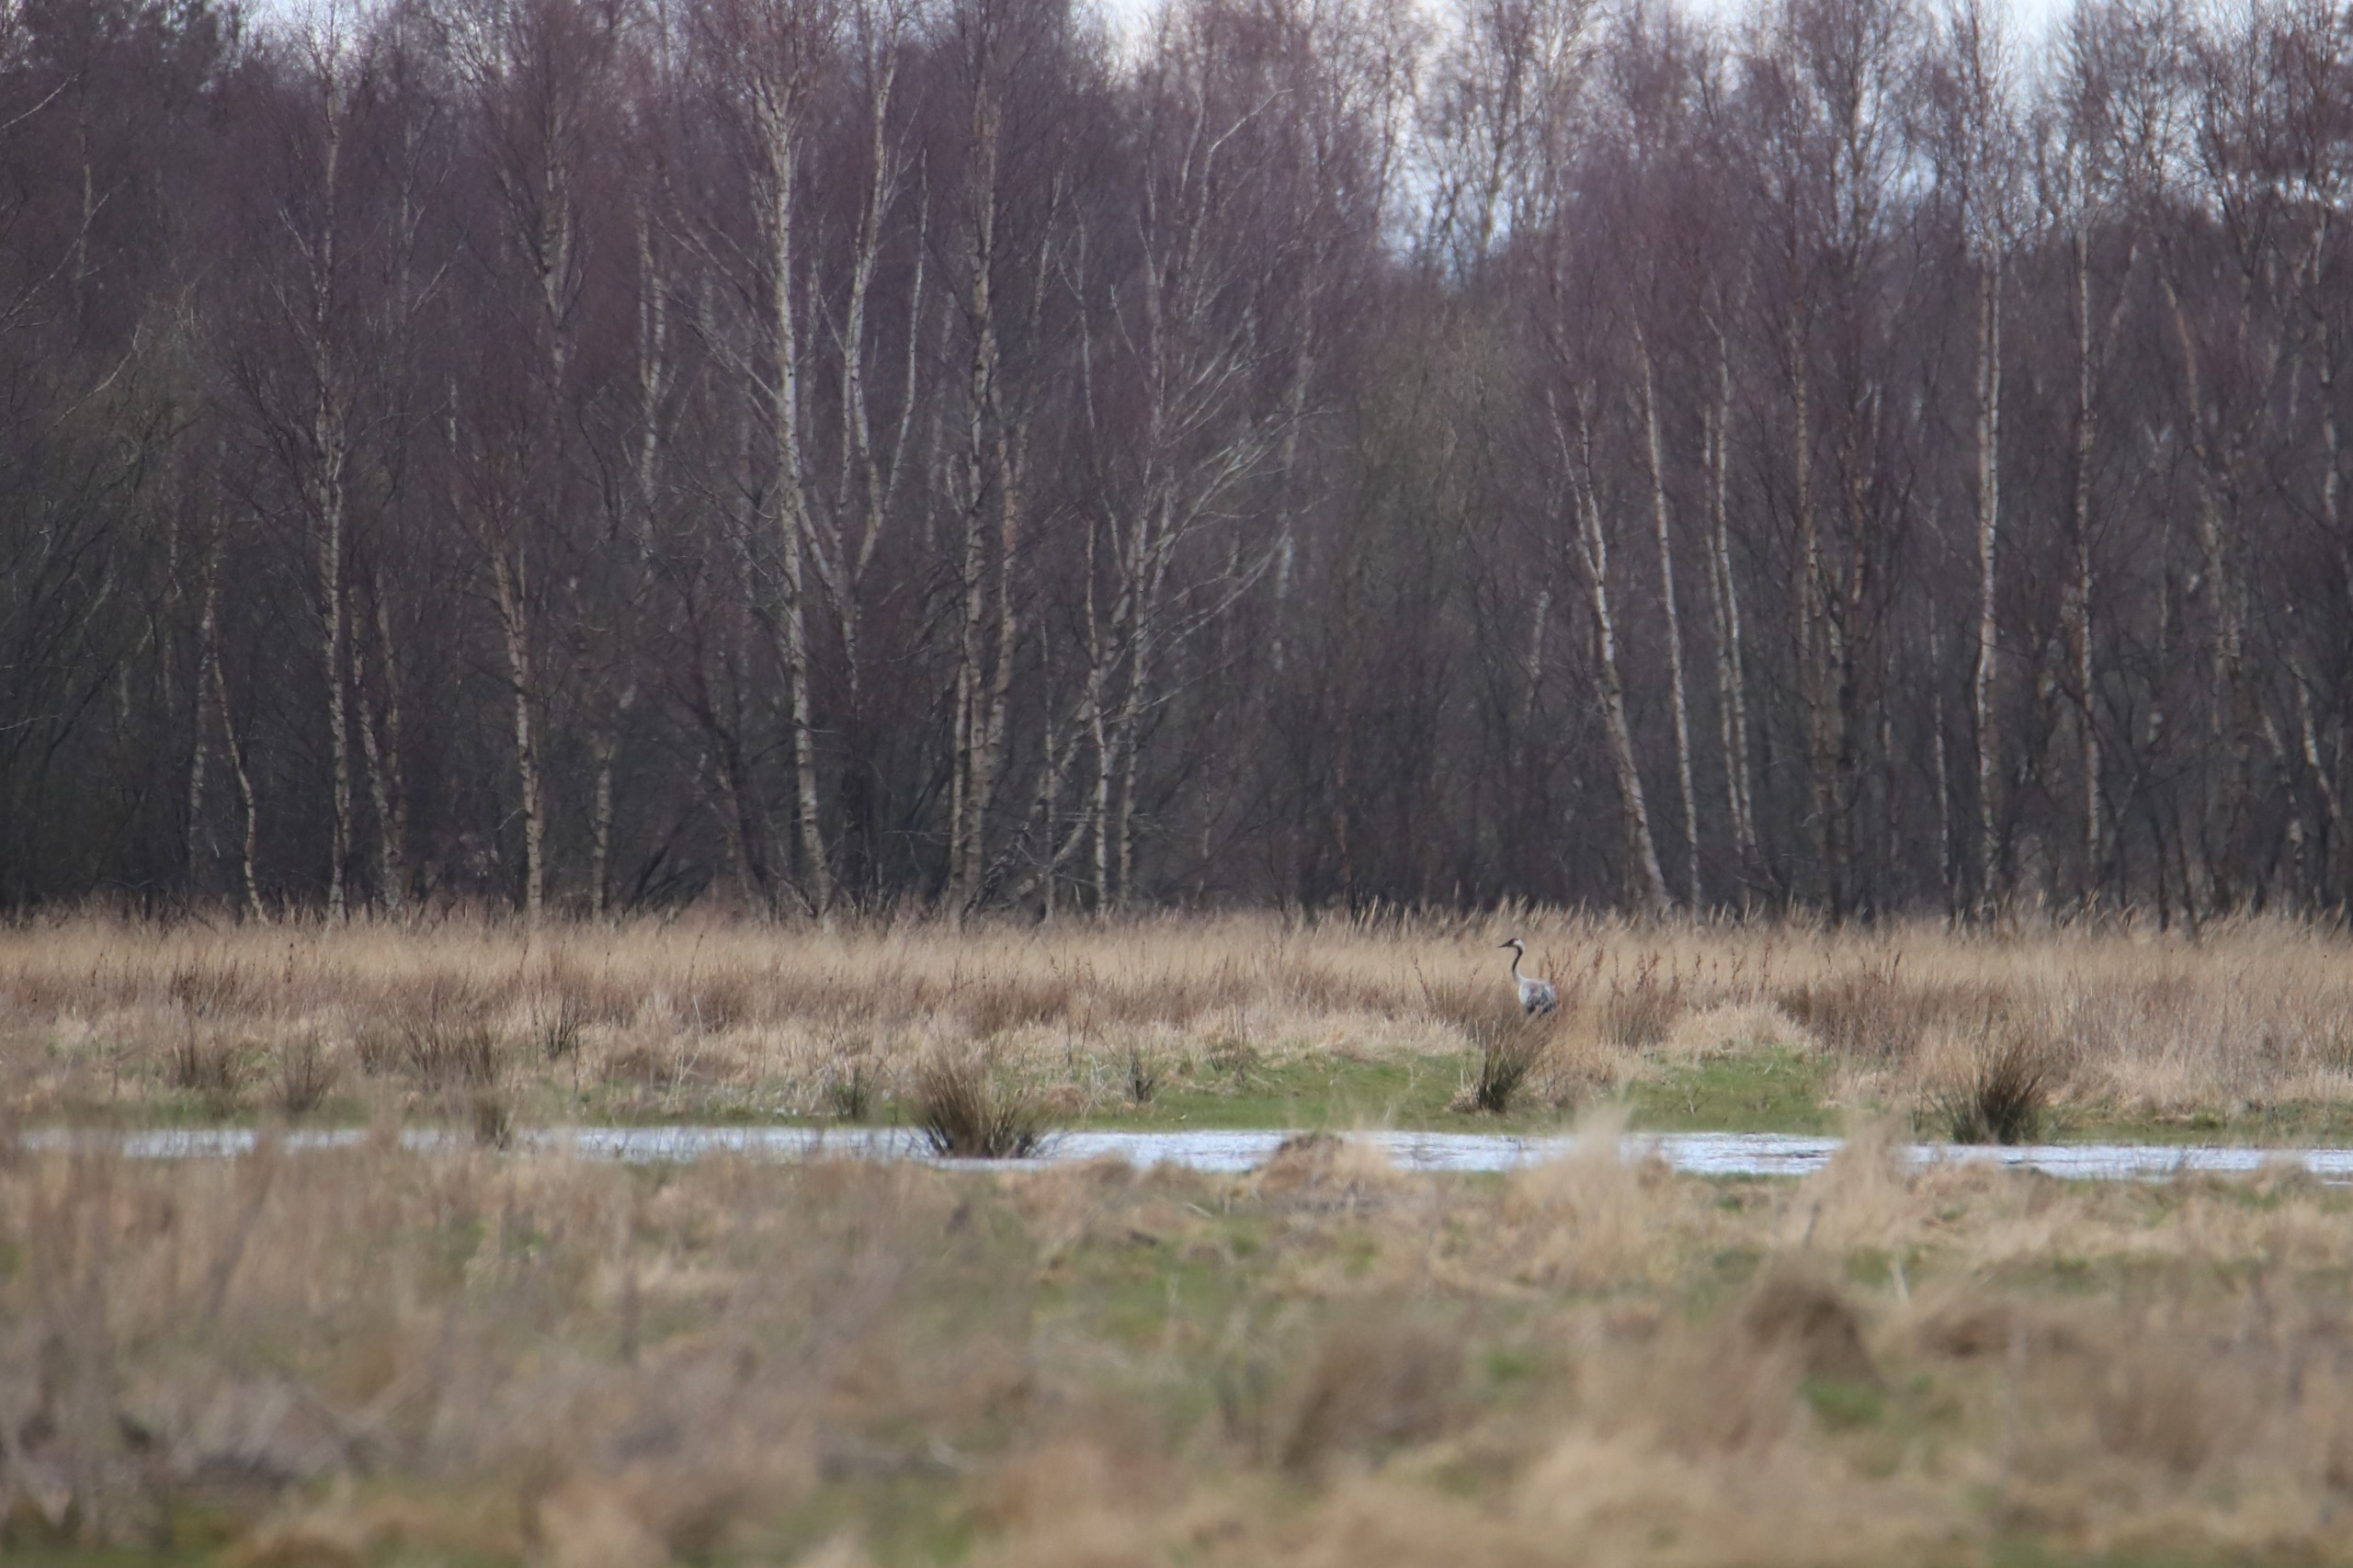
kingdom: Animalia
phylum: Chordata
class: Aves
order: Gruiformes
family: Gruidae
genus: Grus
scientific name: Grus grus
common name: Trane
